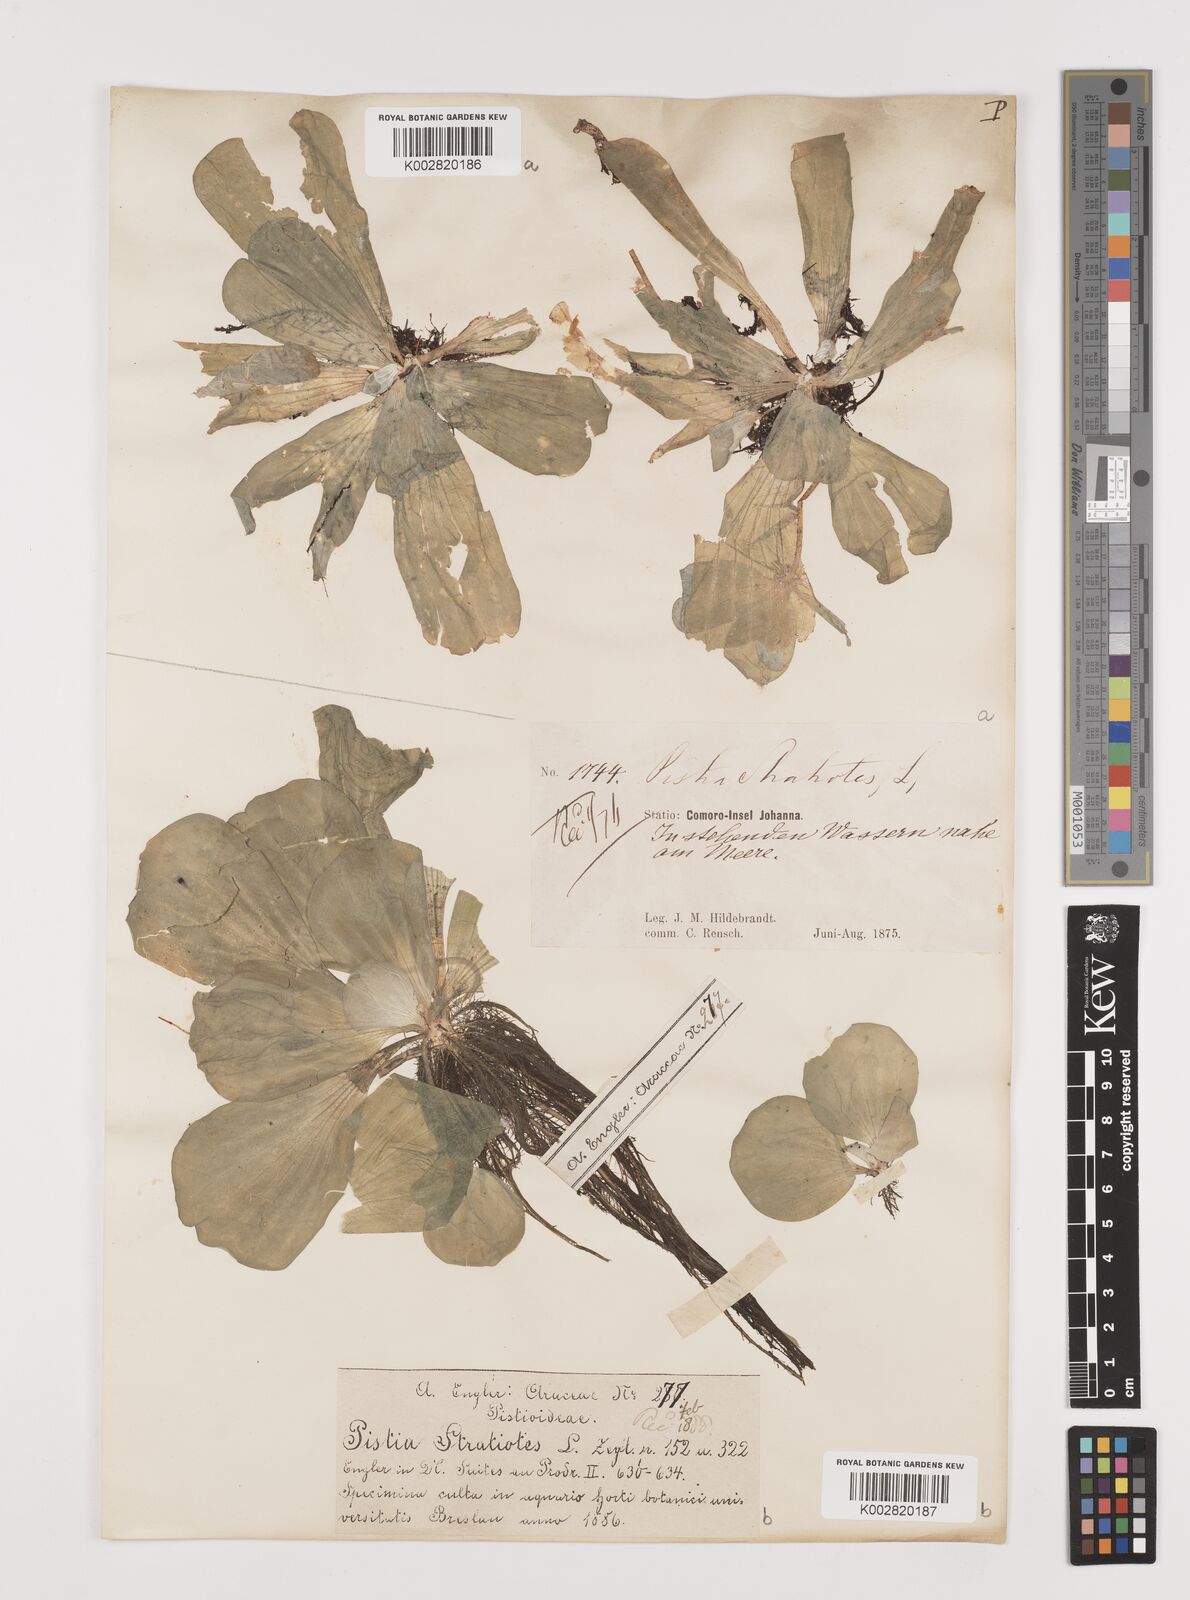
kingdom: Plantae
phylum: Tracheophyta
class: Liliopsida
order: Alismatales
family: Araceae
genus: Pistia
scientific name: Pistia stratiotes
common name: Water lettuce
